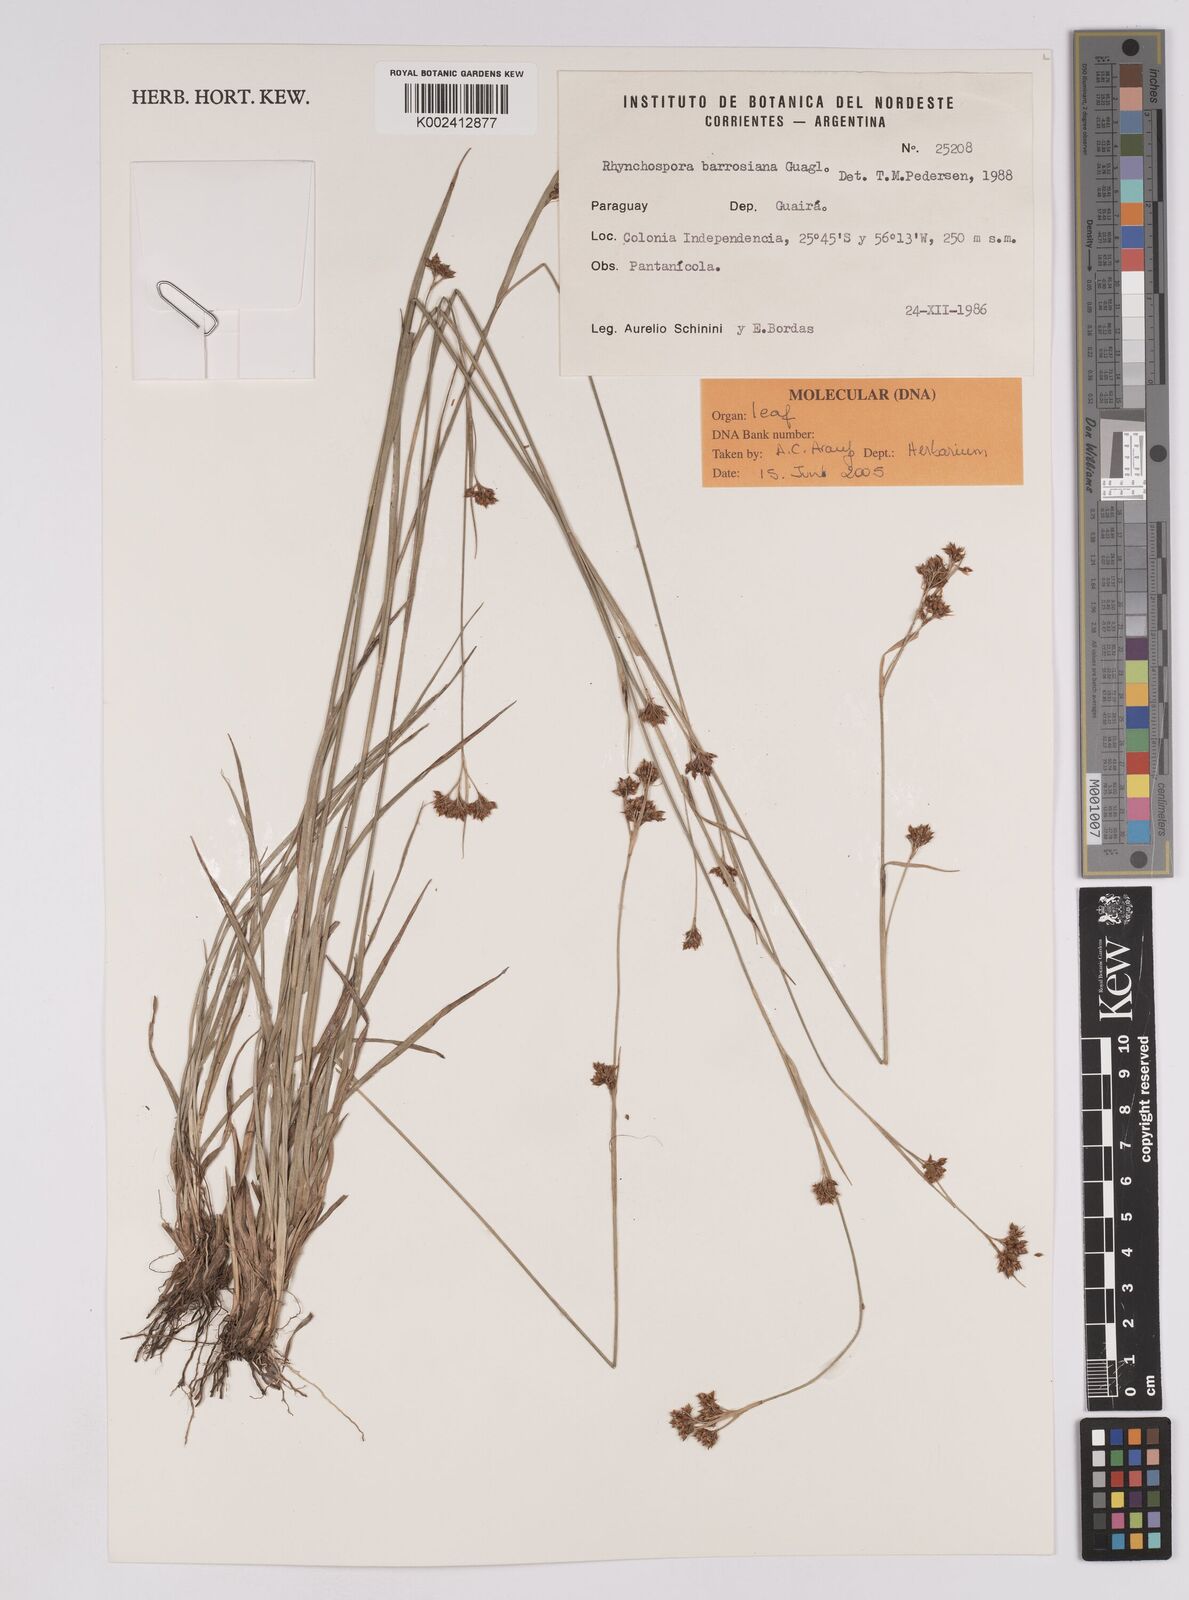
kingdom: Plantae
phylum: Tracheophyta
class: Liliopsida
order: Poales
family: Cyperaceae
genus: Rhynchospora
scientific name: Rhynchospora barrosiana
